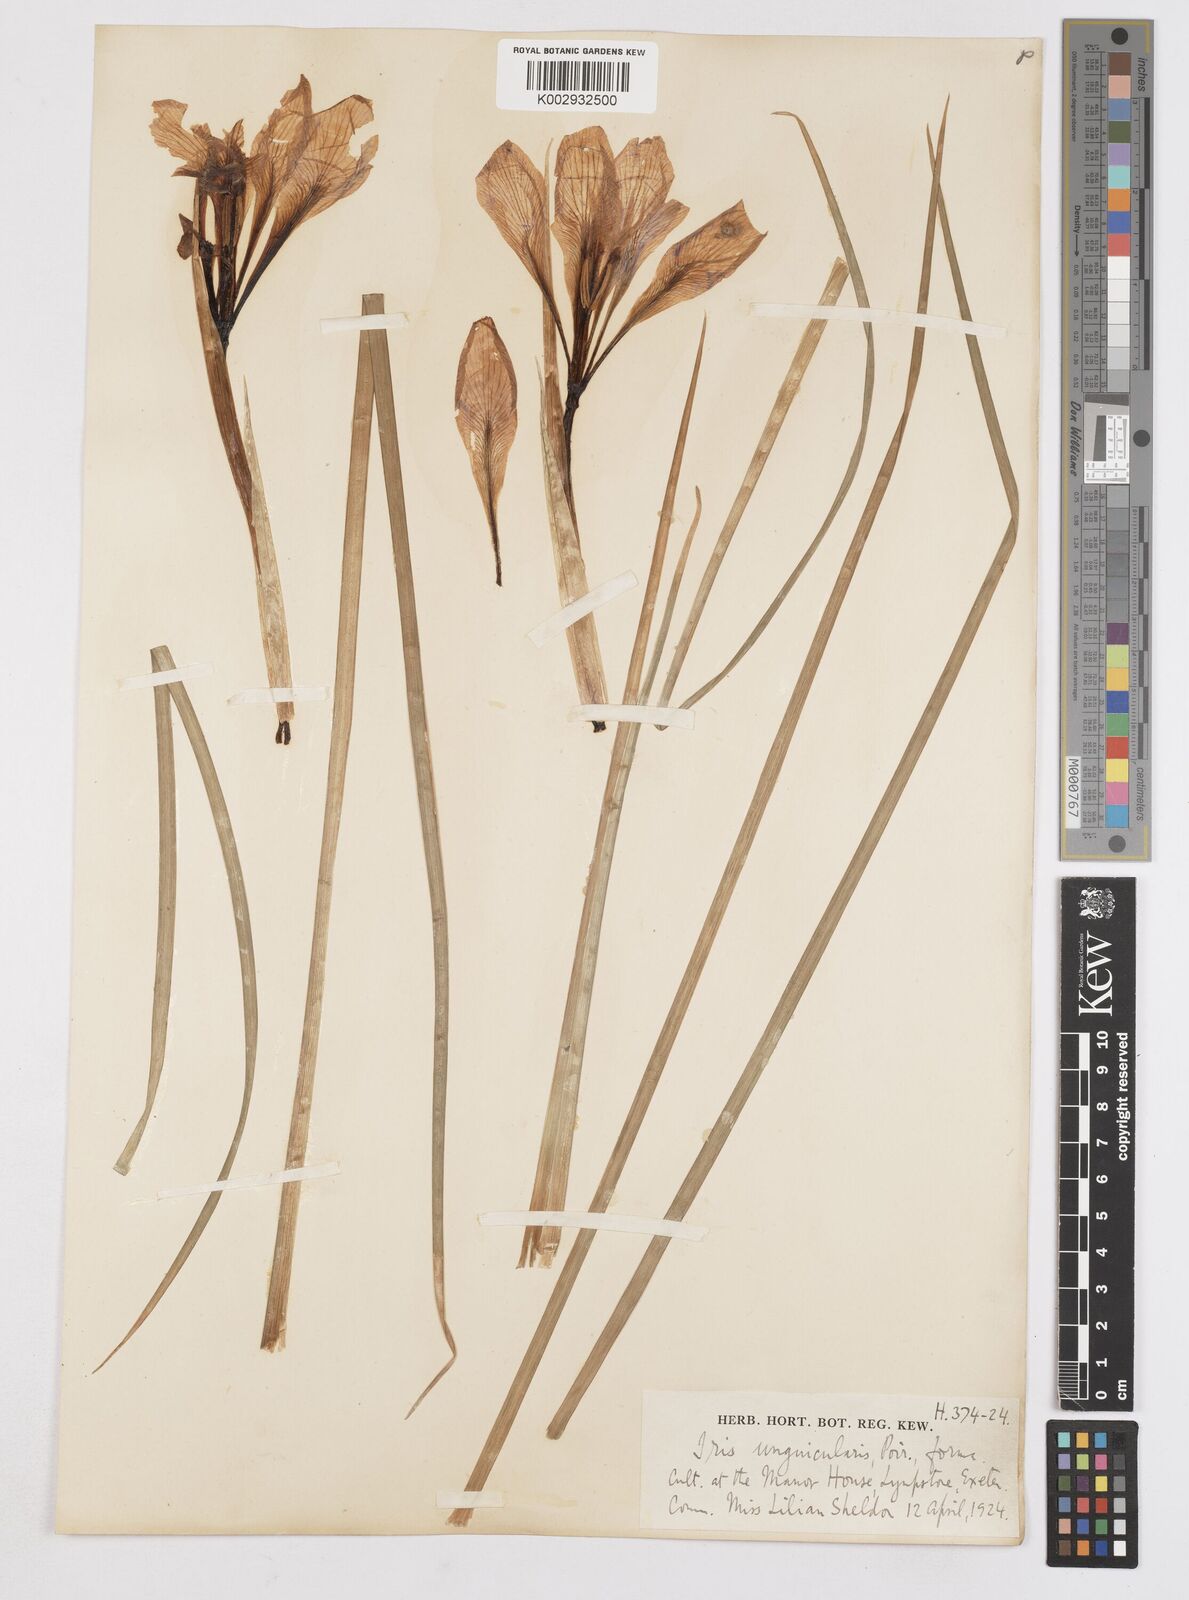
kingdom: Plantae
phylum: Tracheophyta
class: Liliopsida
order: Asparagales
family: Iridaceae
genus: Iris
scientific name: Iris unguicularis
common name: Algerian iris
